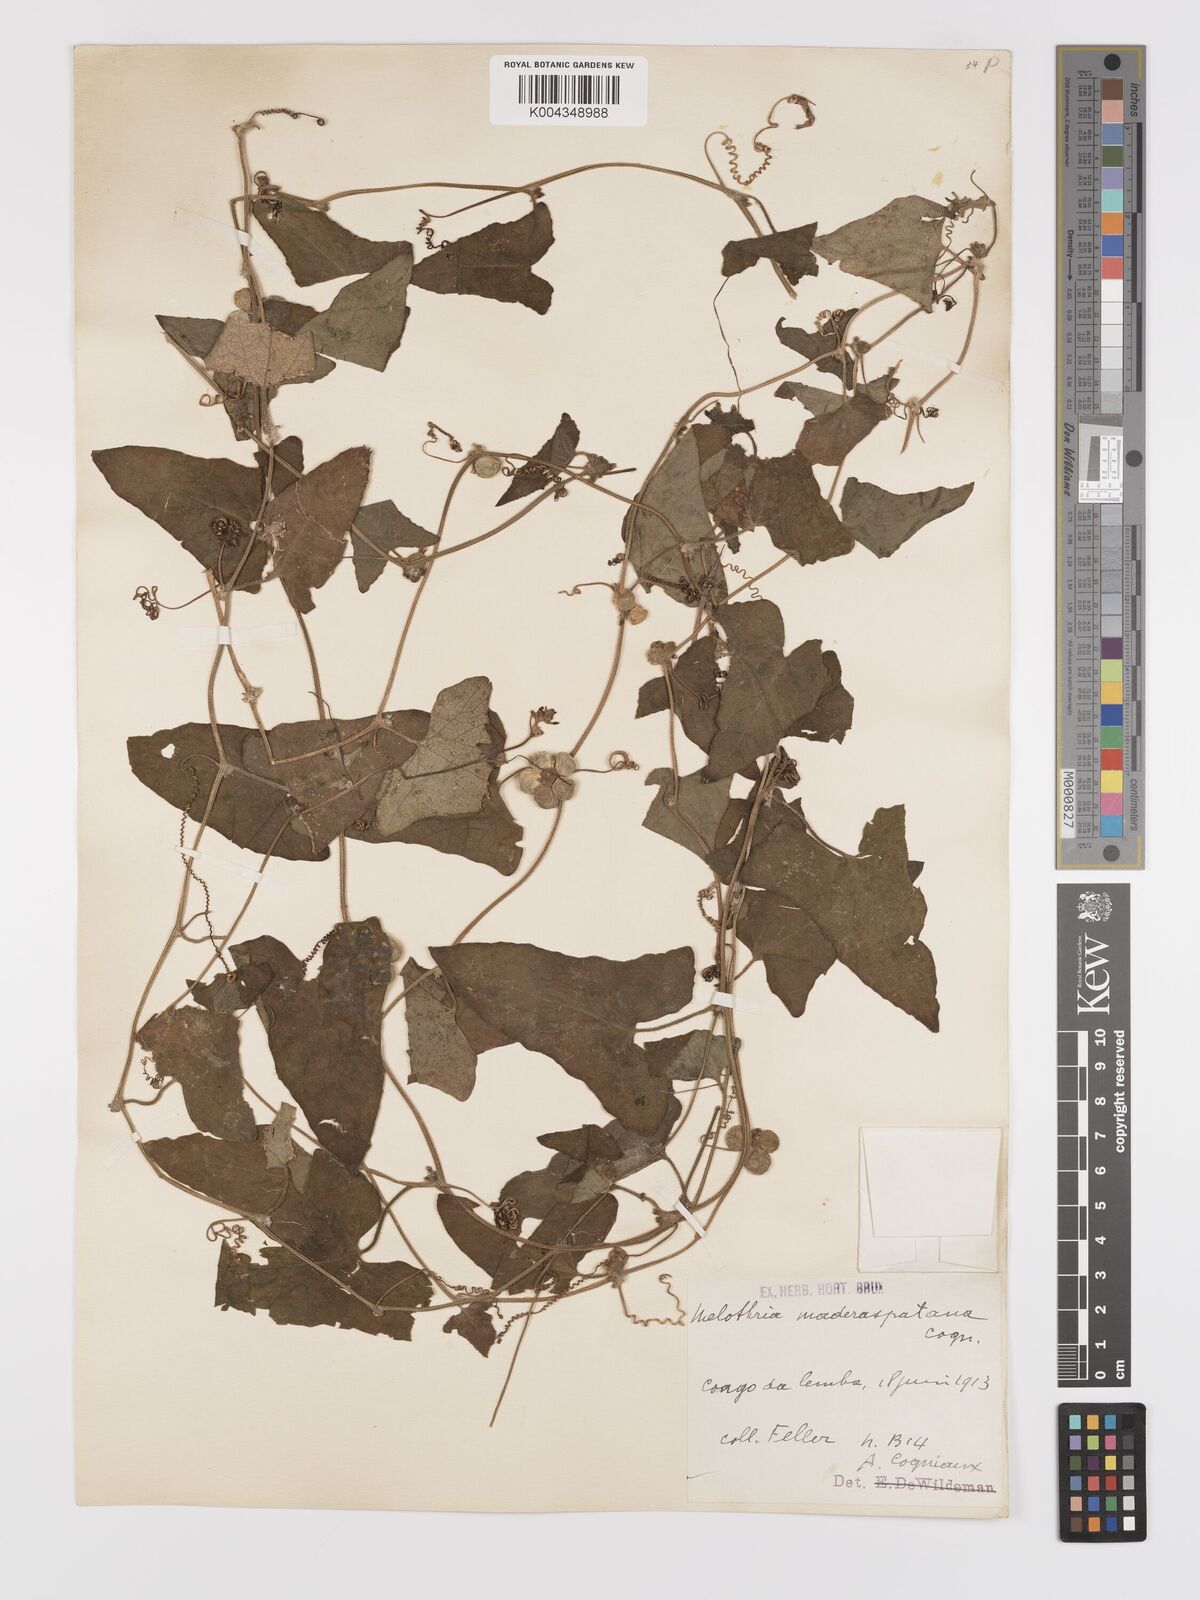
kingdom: Plantae
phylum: Tracheophyta
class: Magnoliopsida
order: Cucurbitales
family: Cucurbitaceae
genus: Cucumis
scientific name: Cucumis maderaspatanus
